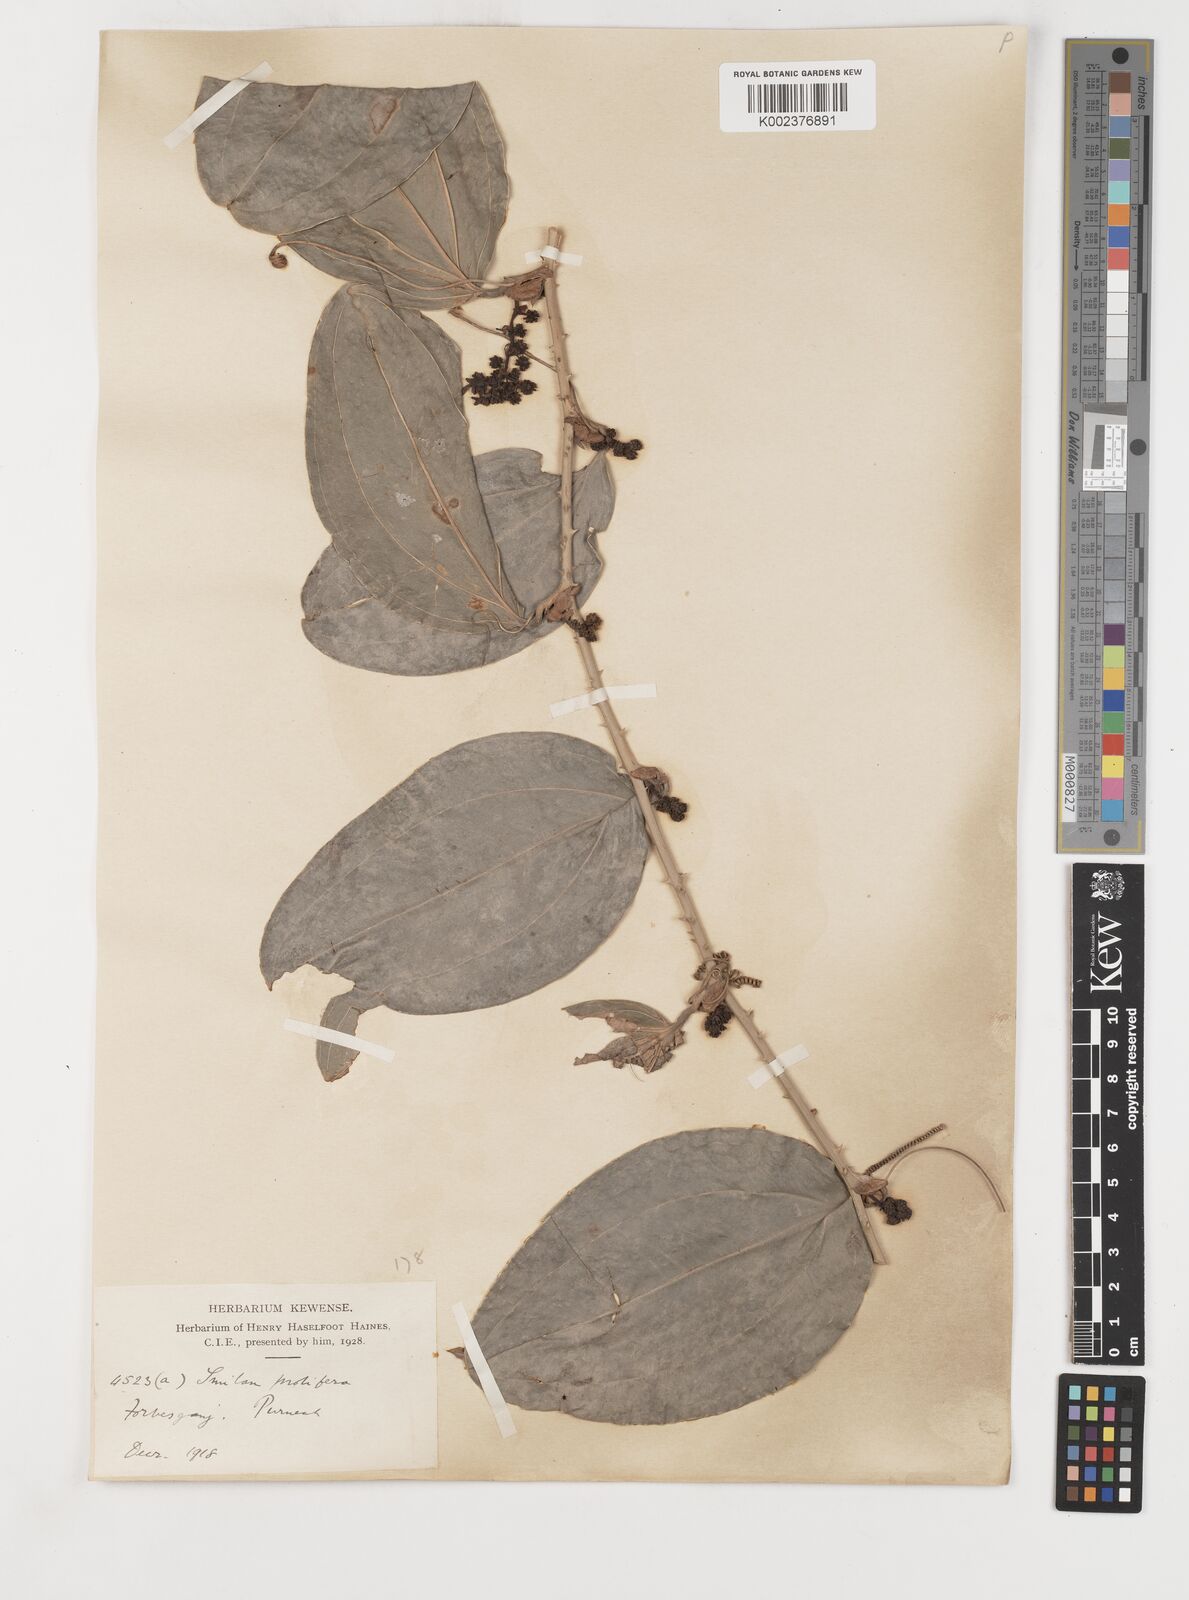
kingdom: Plantae
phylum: Tracheophyta
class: Liliopsida
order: Liliales
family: Smilacaceae
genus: Smilax
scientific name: Smilax prolifera
